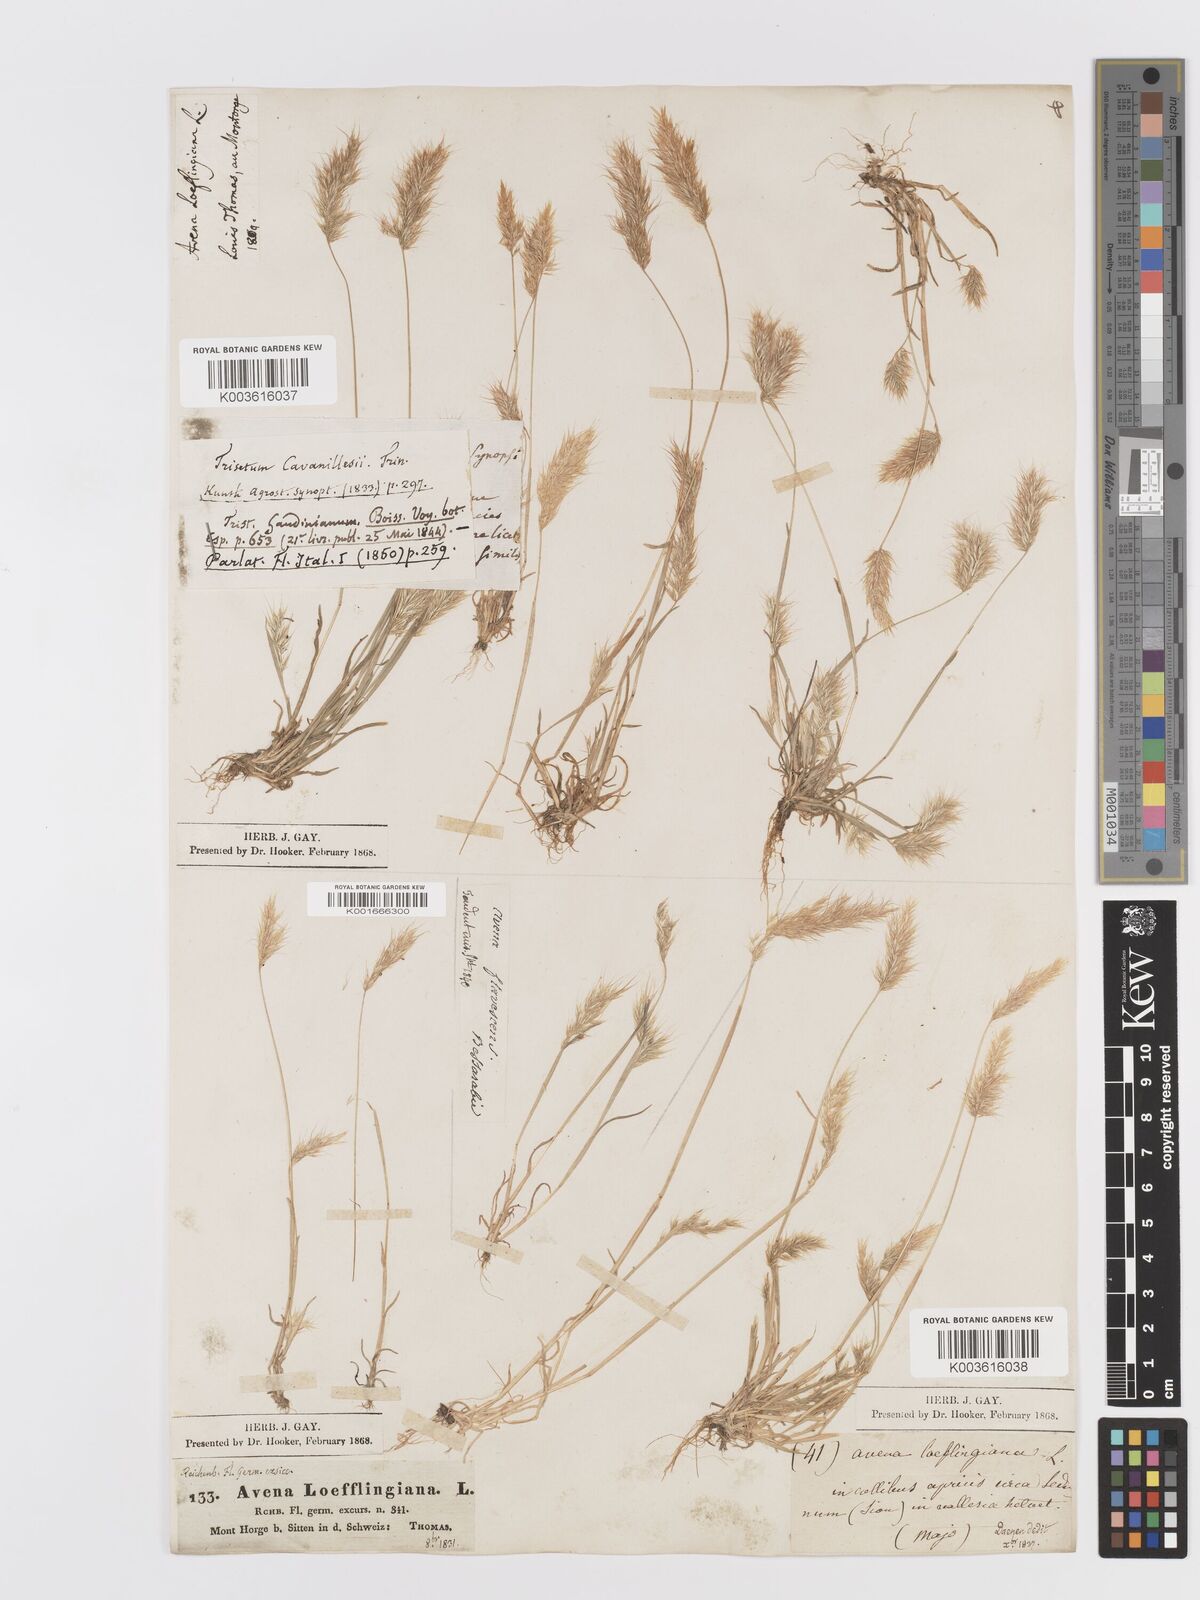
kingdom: Plantae
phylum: Tracheophyta
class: Liliopsida
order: Poales
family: Poaceae
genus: Trisetaria
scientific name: Trisetaria loeflingiana
